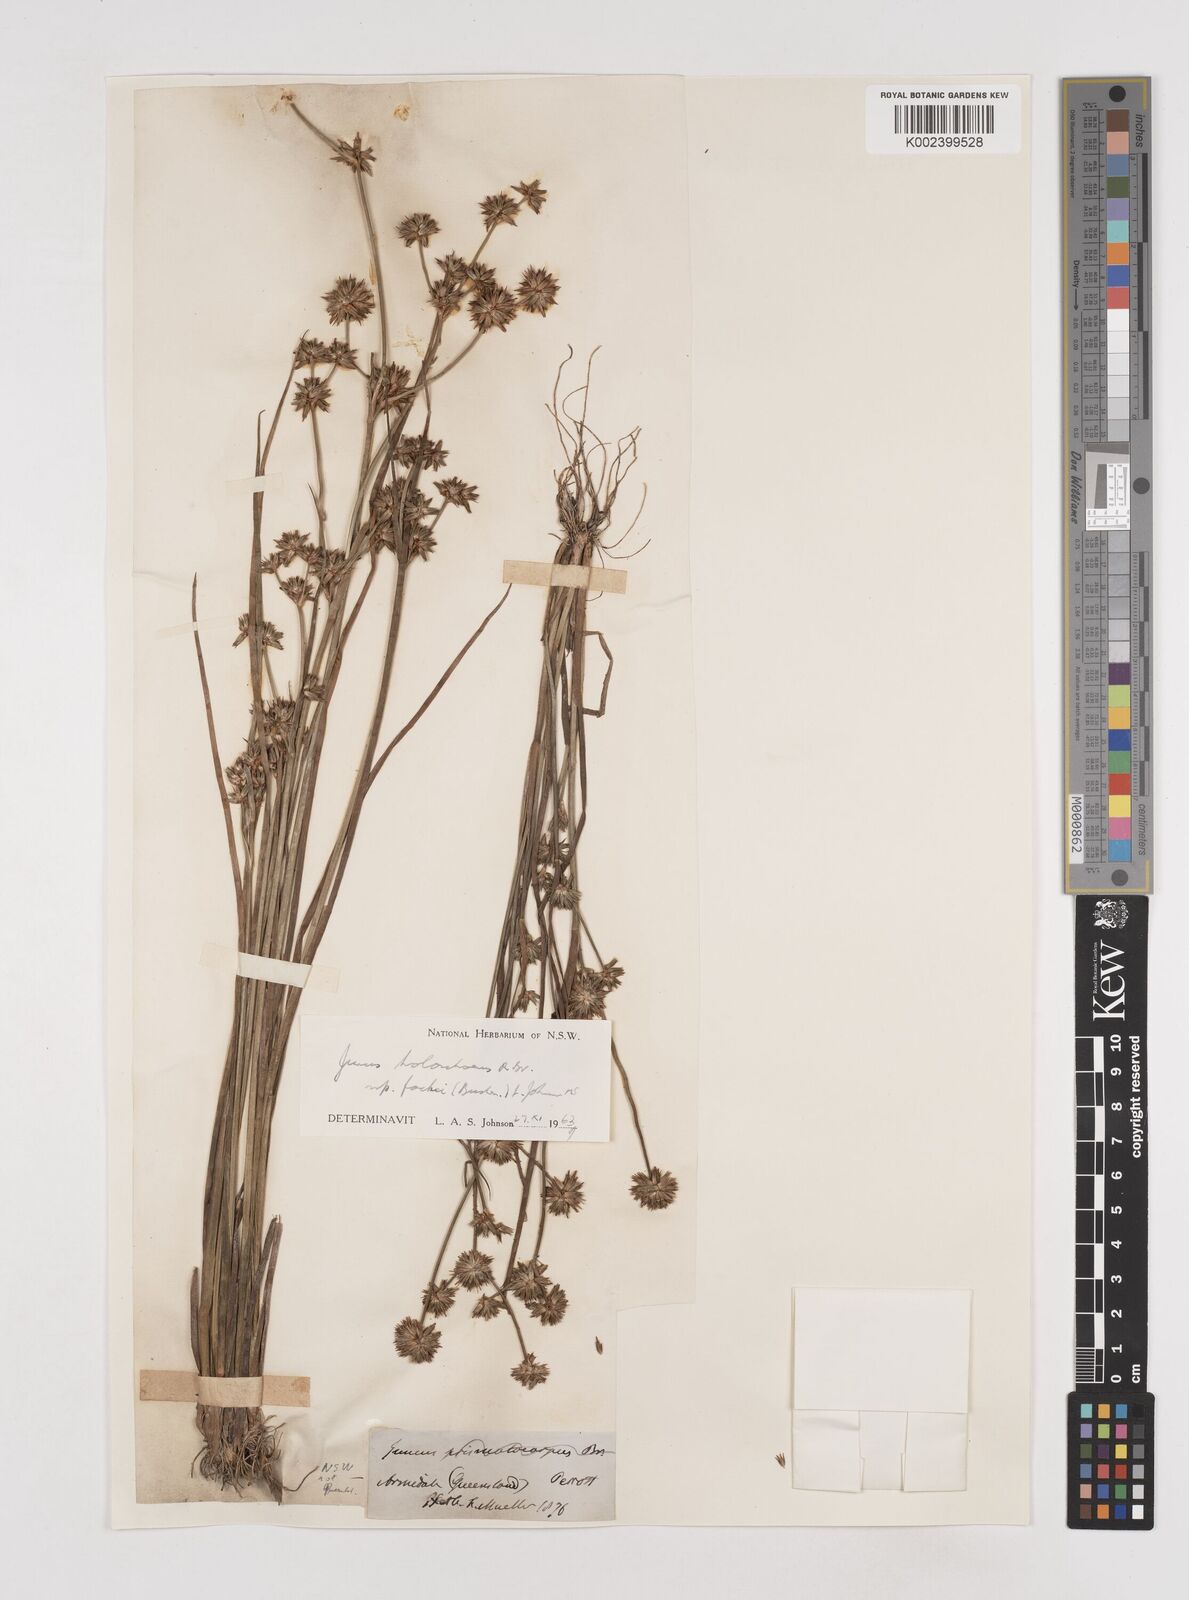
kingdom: Plantae
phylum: Tracheophyta
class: Liliopsida
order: Poales
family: Juncaceae
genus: Juncus
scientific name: Juncus holoschoenus
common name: Joint-leaf rush
